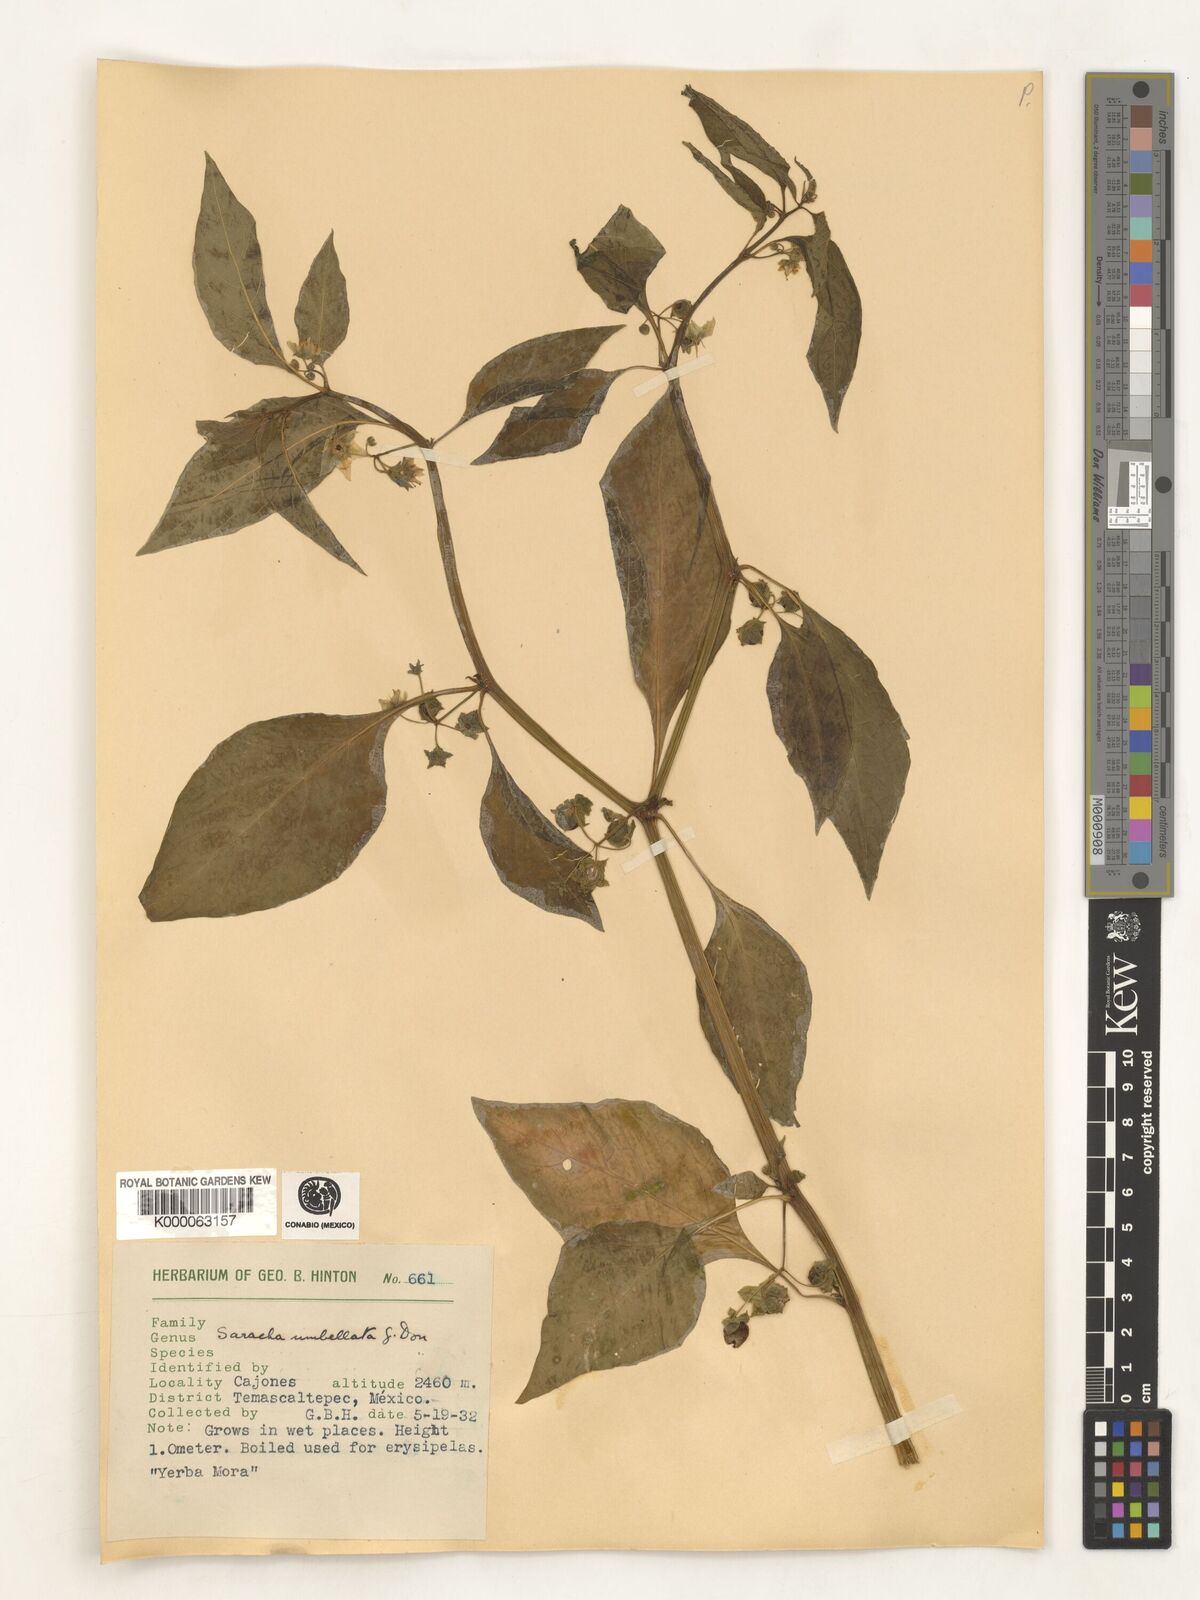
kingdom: Plantae
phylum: Tracheophyta
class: Magnoliopsida
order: Solanales
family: Solanaceae
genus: Saracha
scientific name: Saracha
